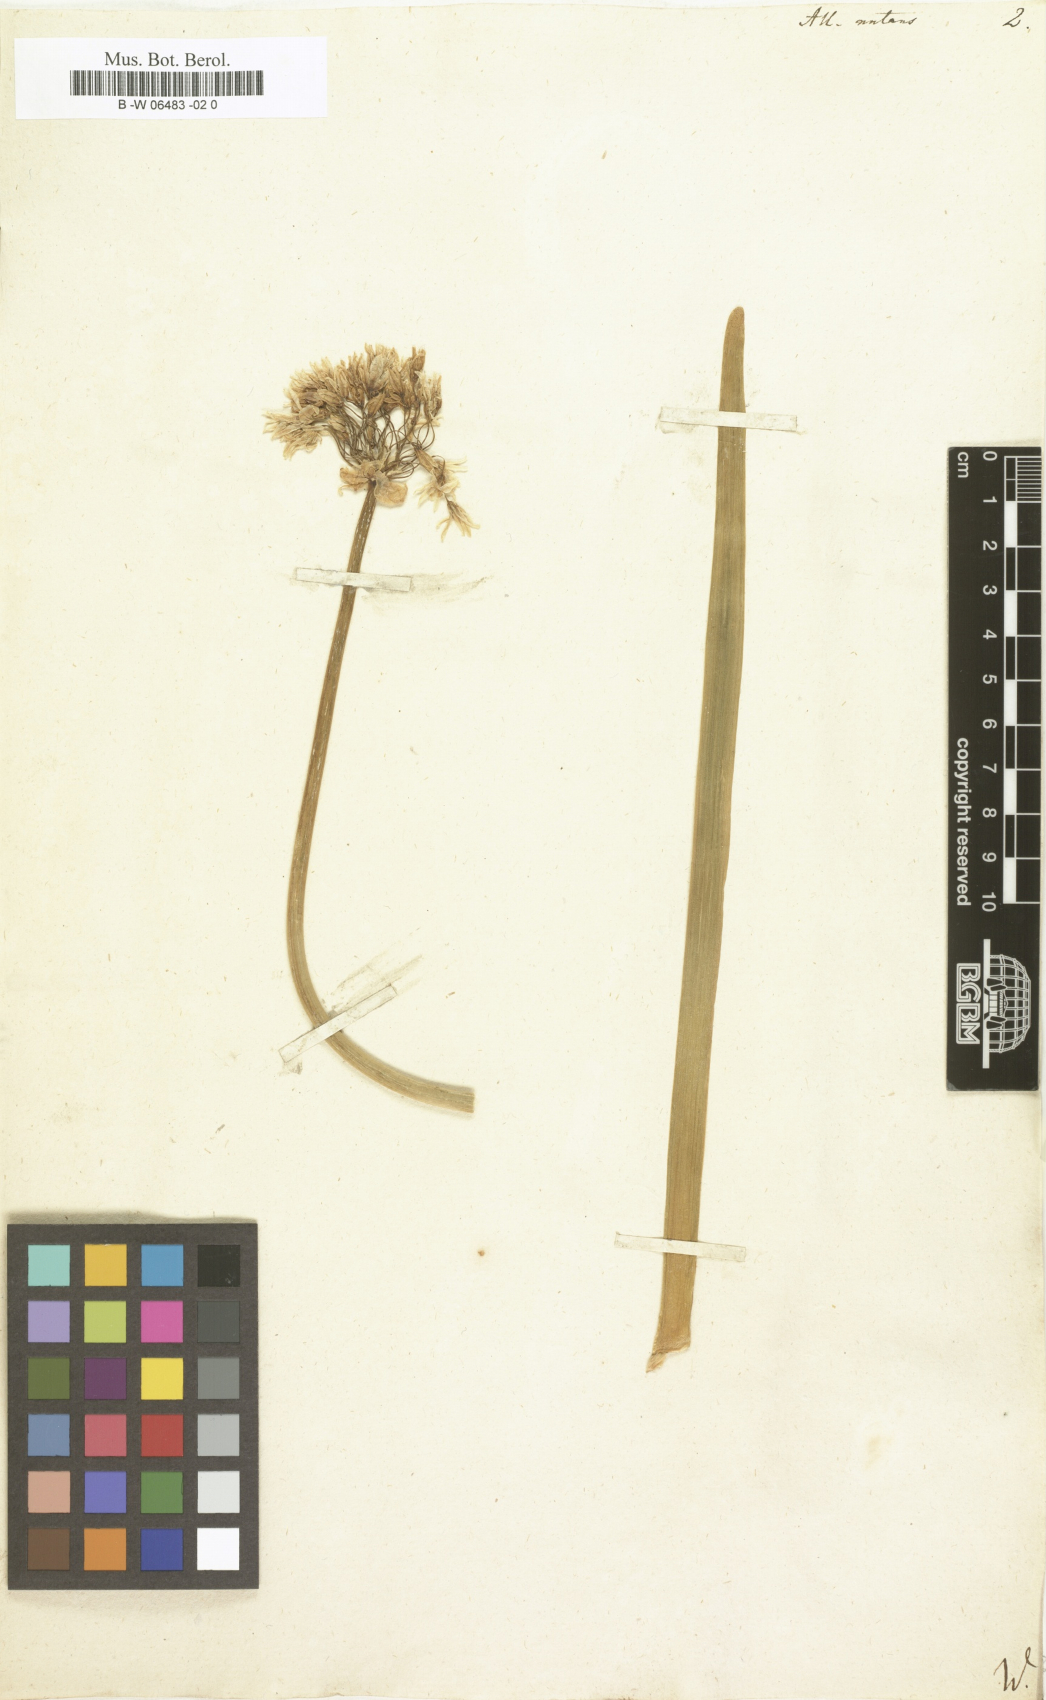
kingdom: Plantae
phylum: Tracheophyta
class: Liliopsida
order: Asparagales
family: Amaryllidaceae
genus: Allium
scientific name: Allium nutans
